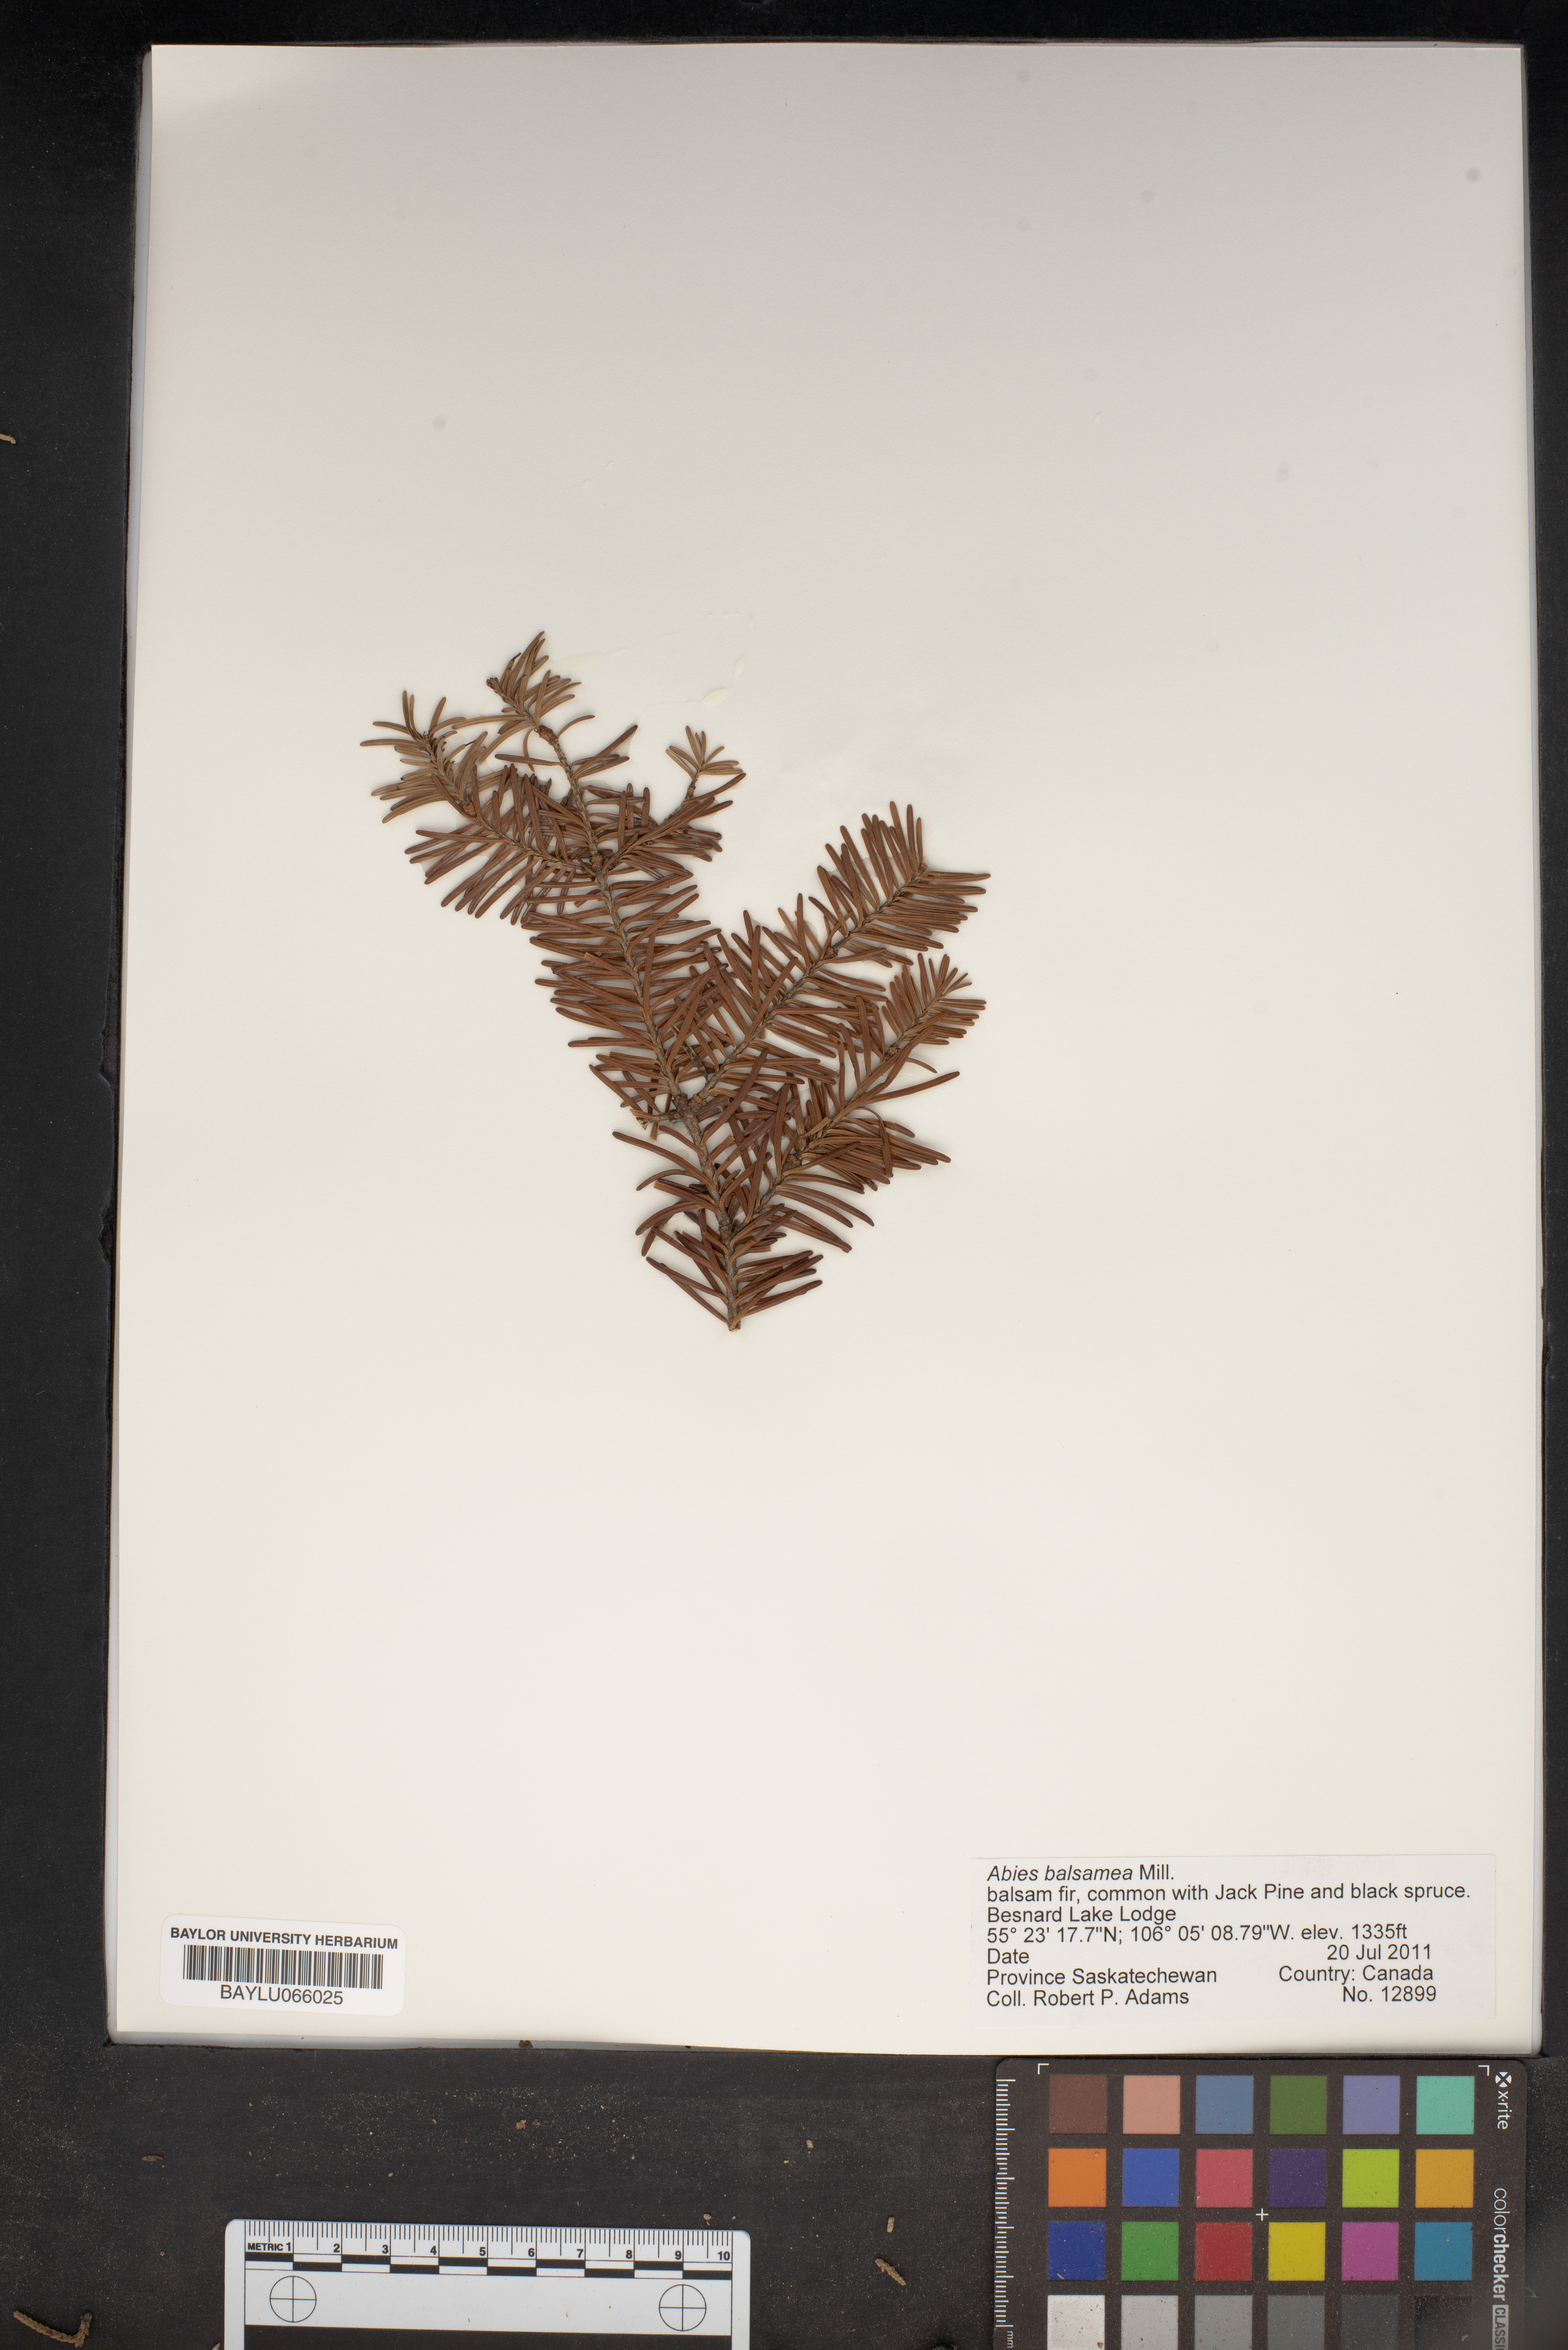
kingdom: Plantae
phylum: Tracheophyta
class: Pinopsida
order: Pinales
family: Pinaceae
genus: Abies
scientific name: Abies balsamea
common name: Balsam fir
